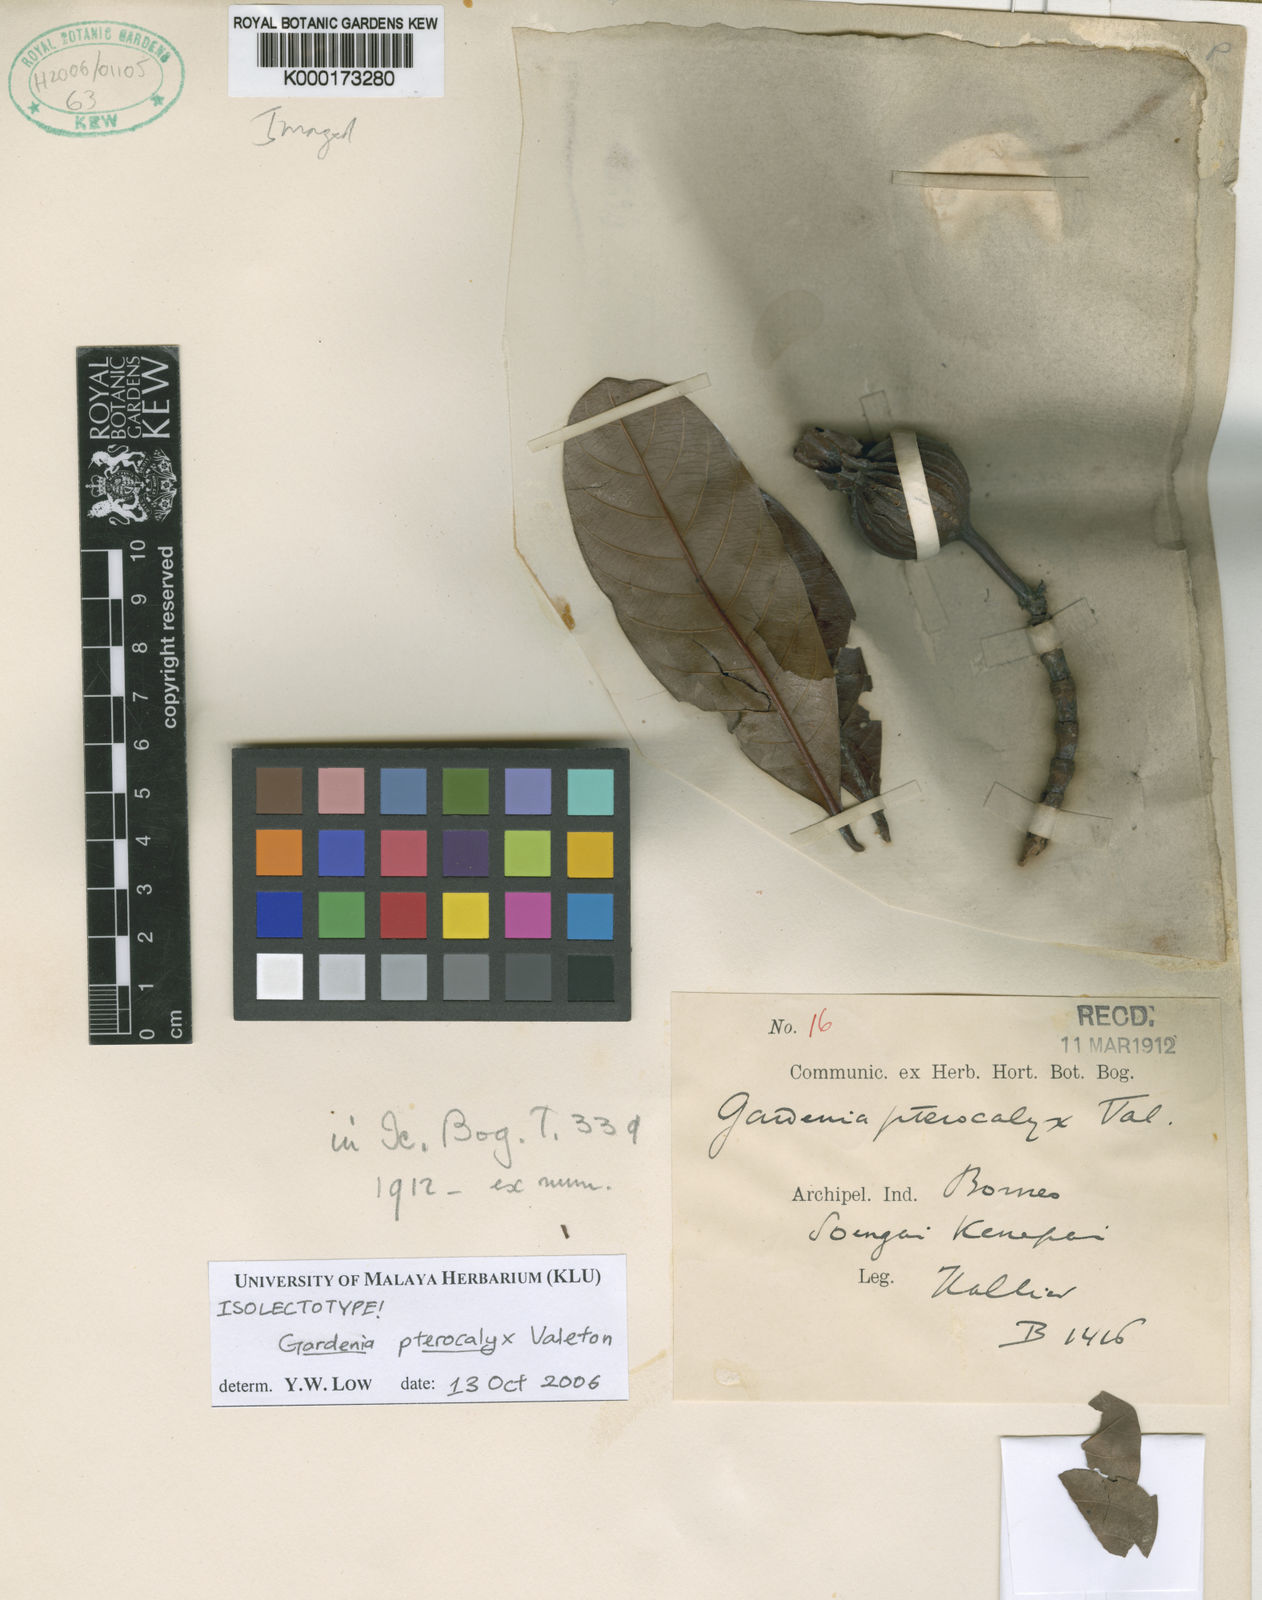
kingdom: Plantae
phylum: Tracheophyta
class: Magnoliopsida
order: Gentianales
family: Rubiaceae
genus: Gardenia
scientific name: Gardenia pterocalyx
